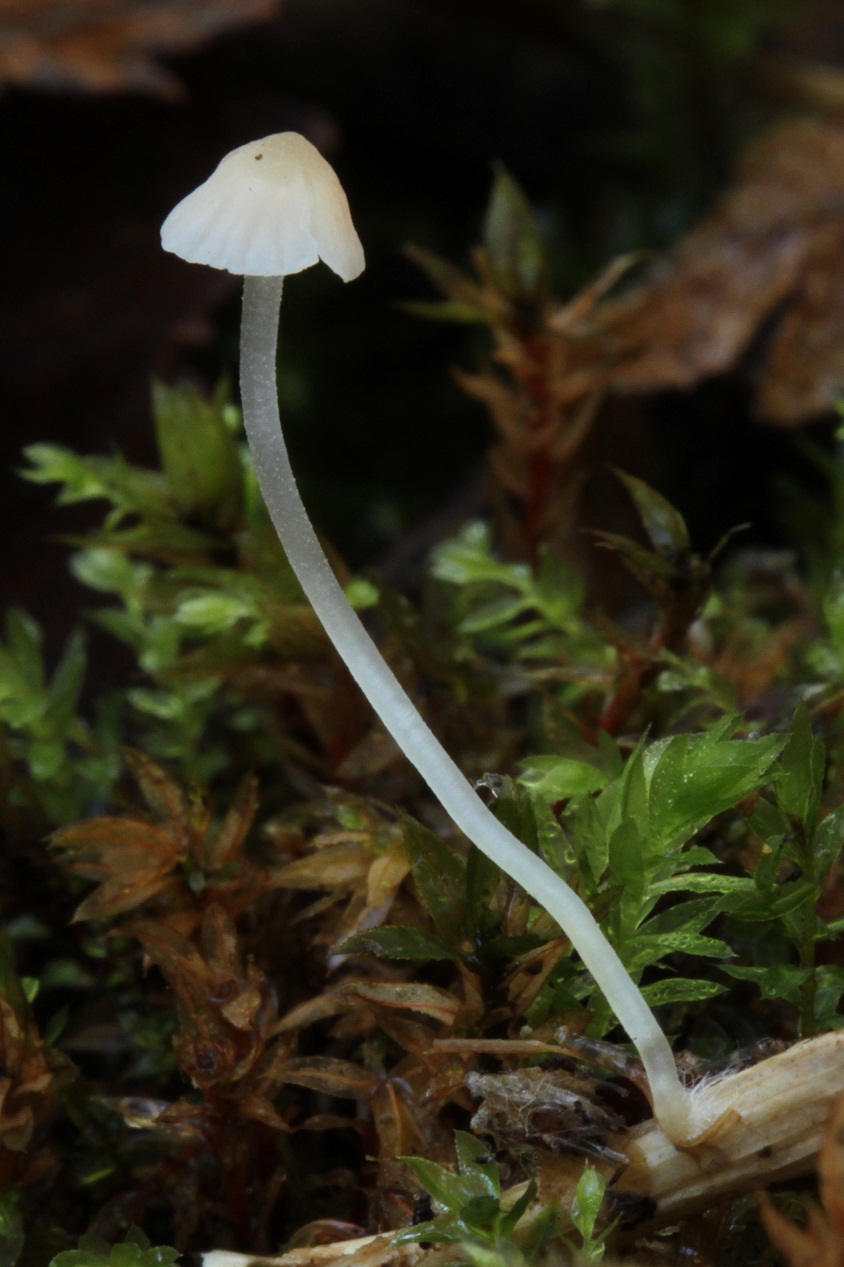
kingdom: Fungi
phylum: Basidiomycota
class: Agaricomycetes
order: Agaricales
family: Mycenaceae
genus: Atheniella
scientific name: Atheniella adonis
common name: rønnerød huesvamp
